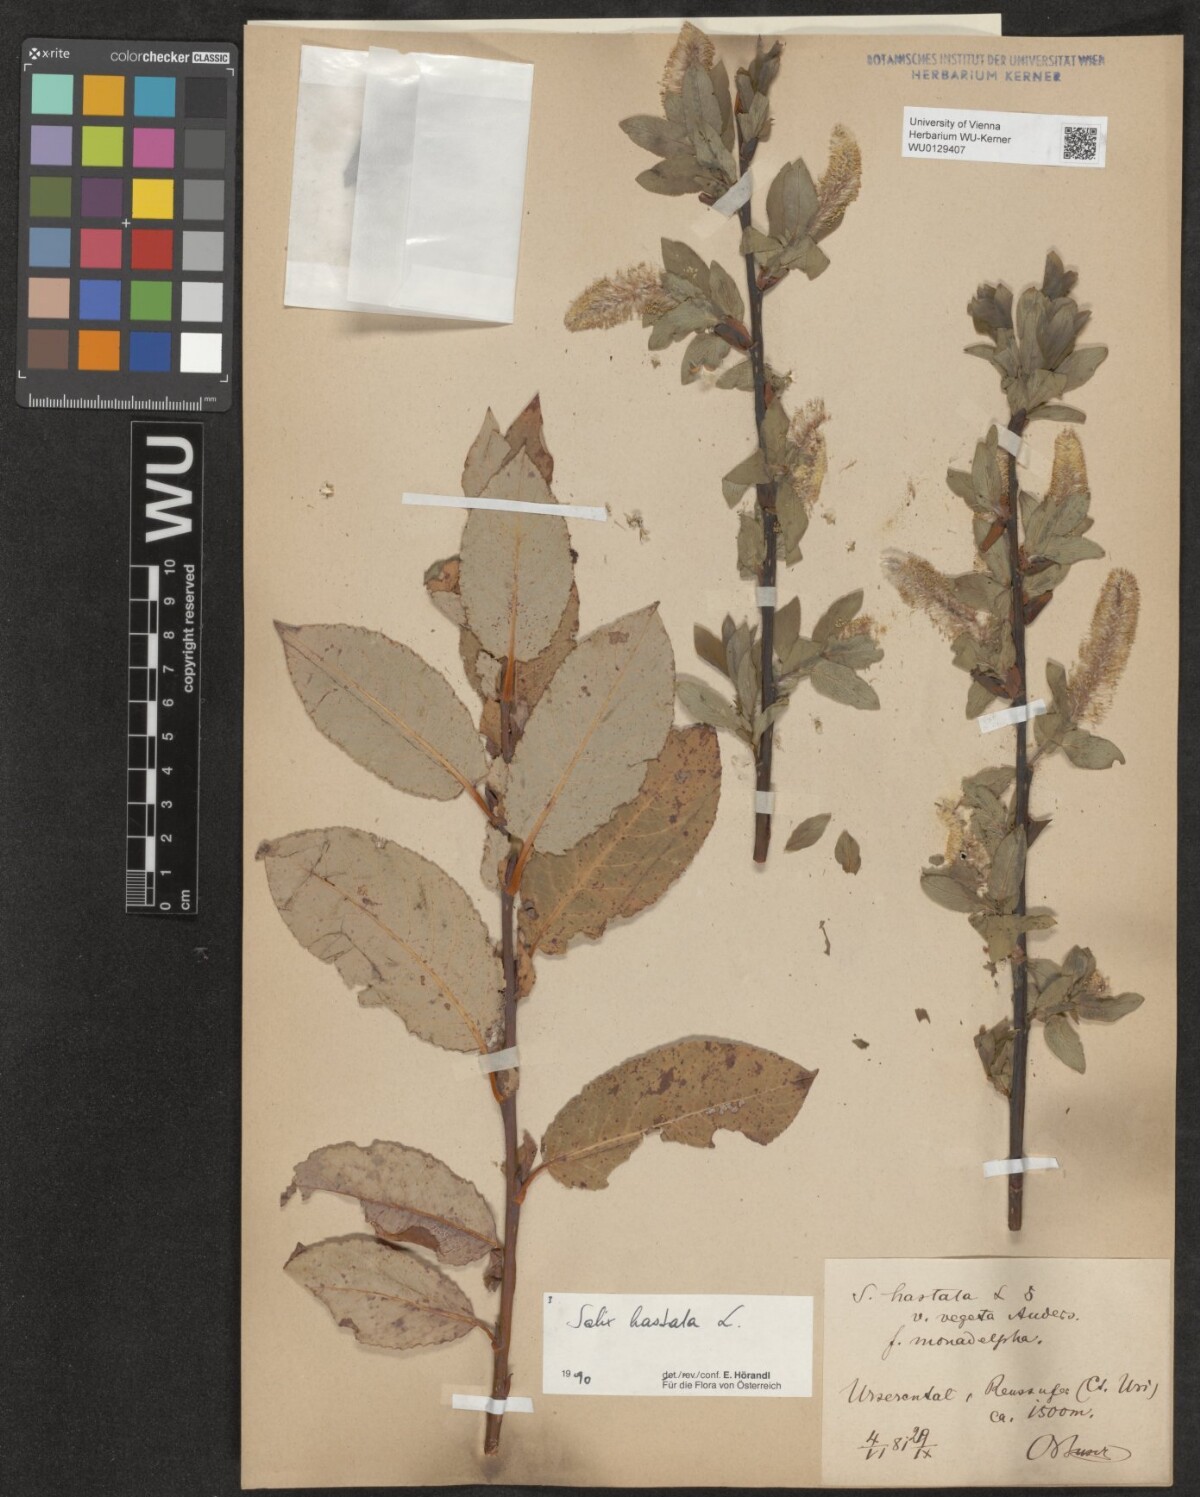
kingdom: Plantae
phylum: Tracheophyta
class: Magnoliopsida
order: Malpighiales
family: Salicaceae
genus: Salix
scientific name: Salix hastata
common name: Halberd willow
